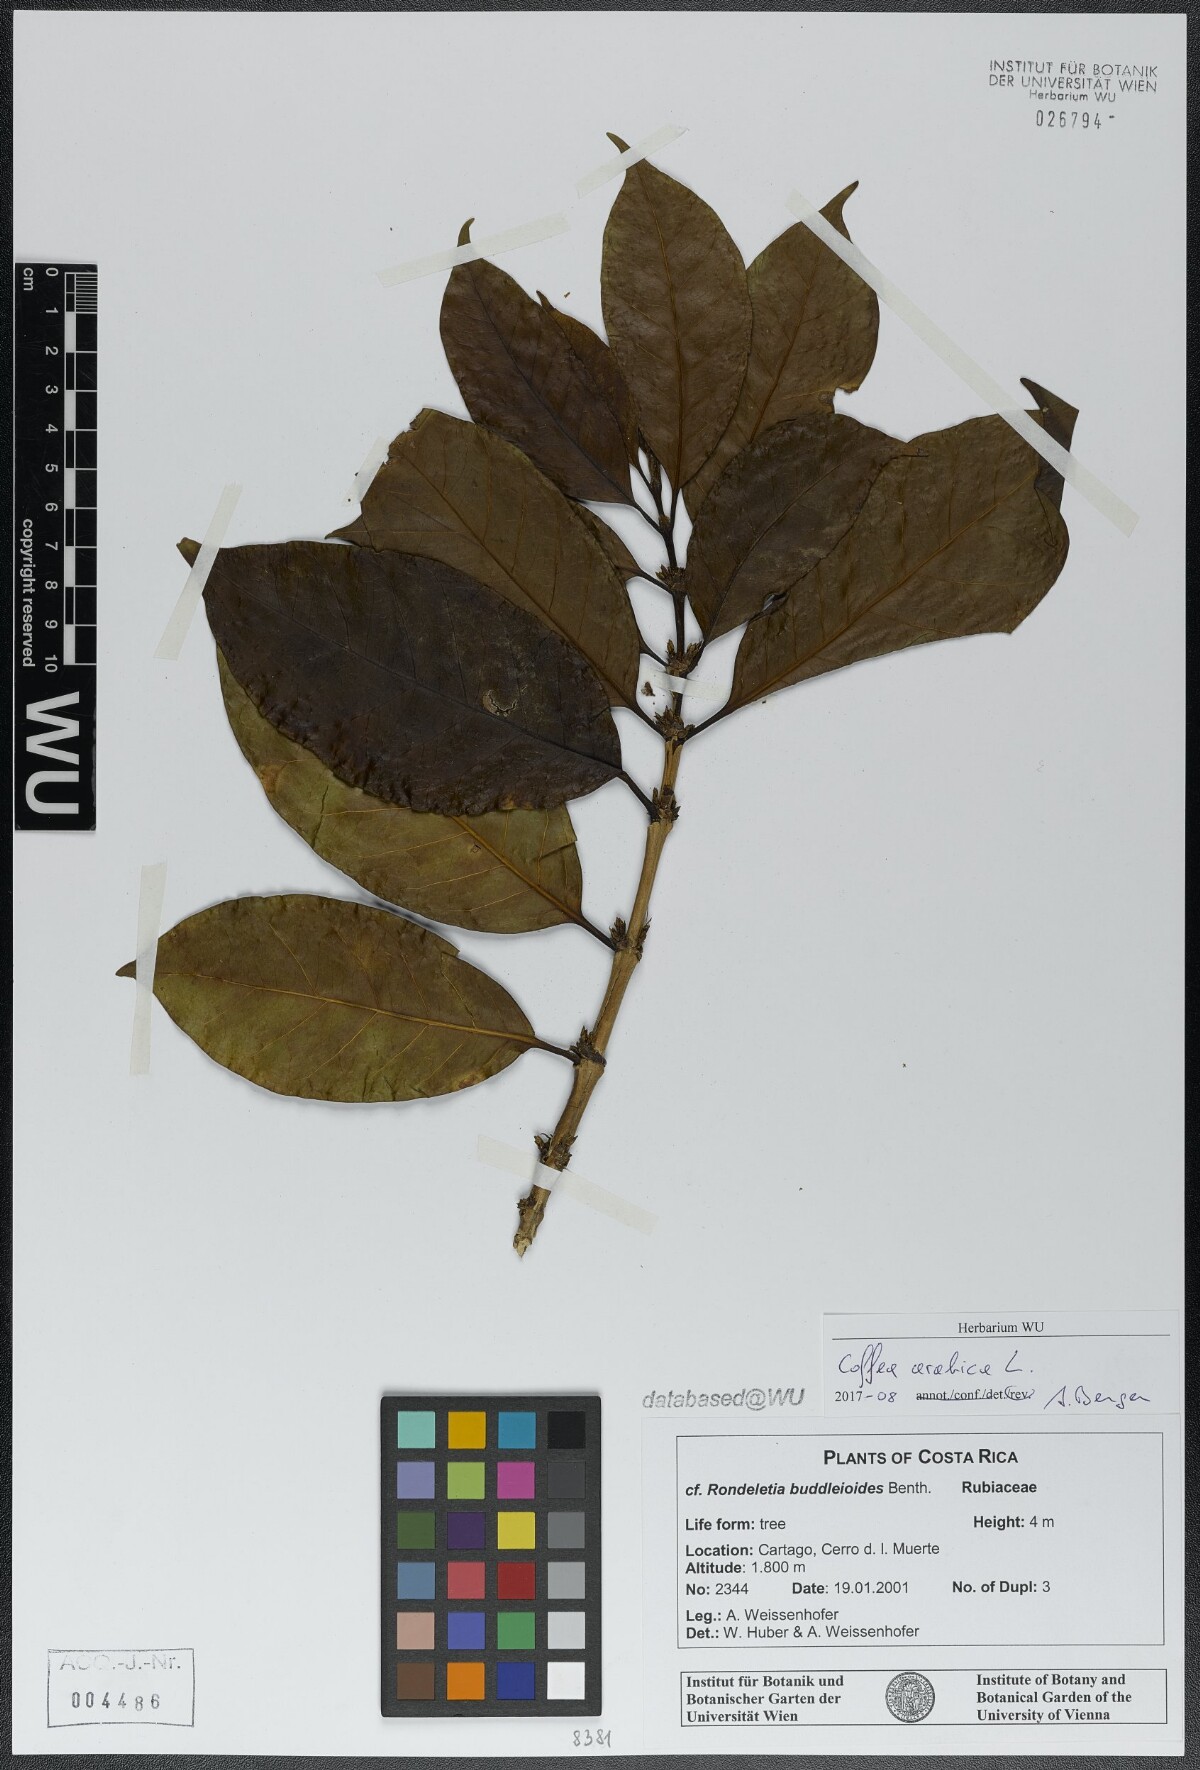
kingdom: Plantae
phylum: Tracheophyta
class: Magnoliopsida
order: Gentianales
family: Rubiaceae
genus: Coffea
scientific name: Coffea arabica
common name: Coffee
